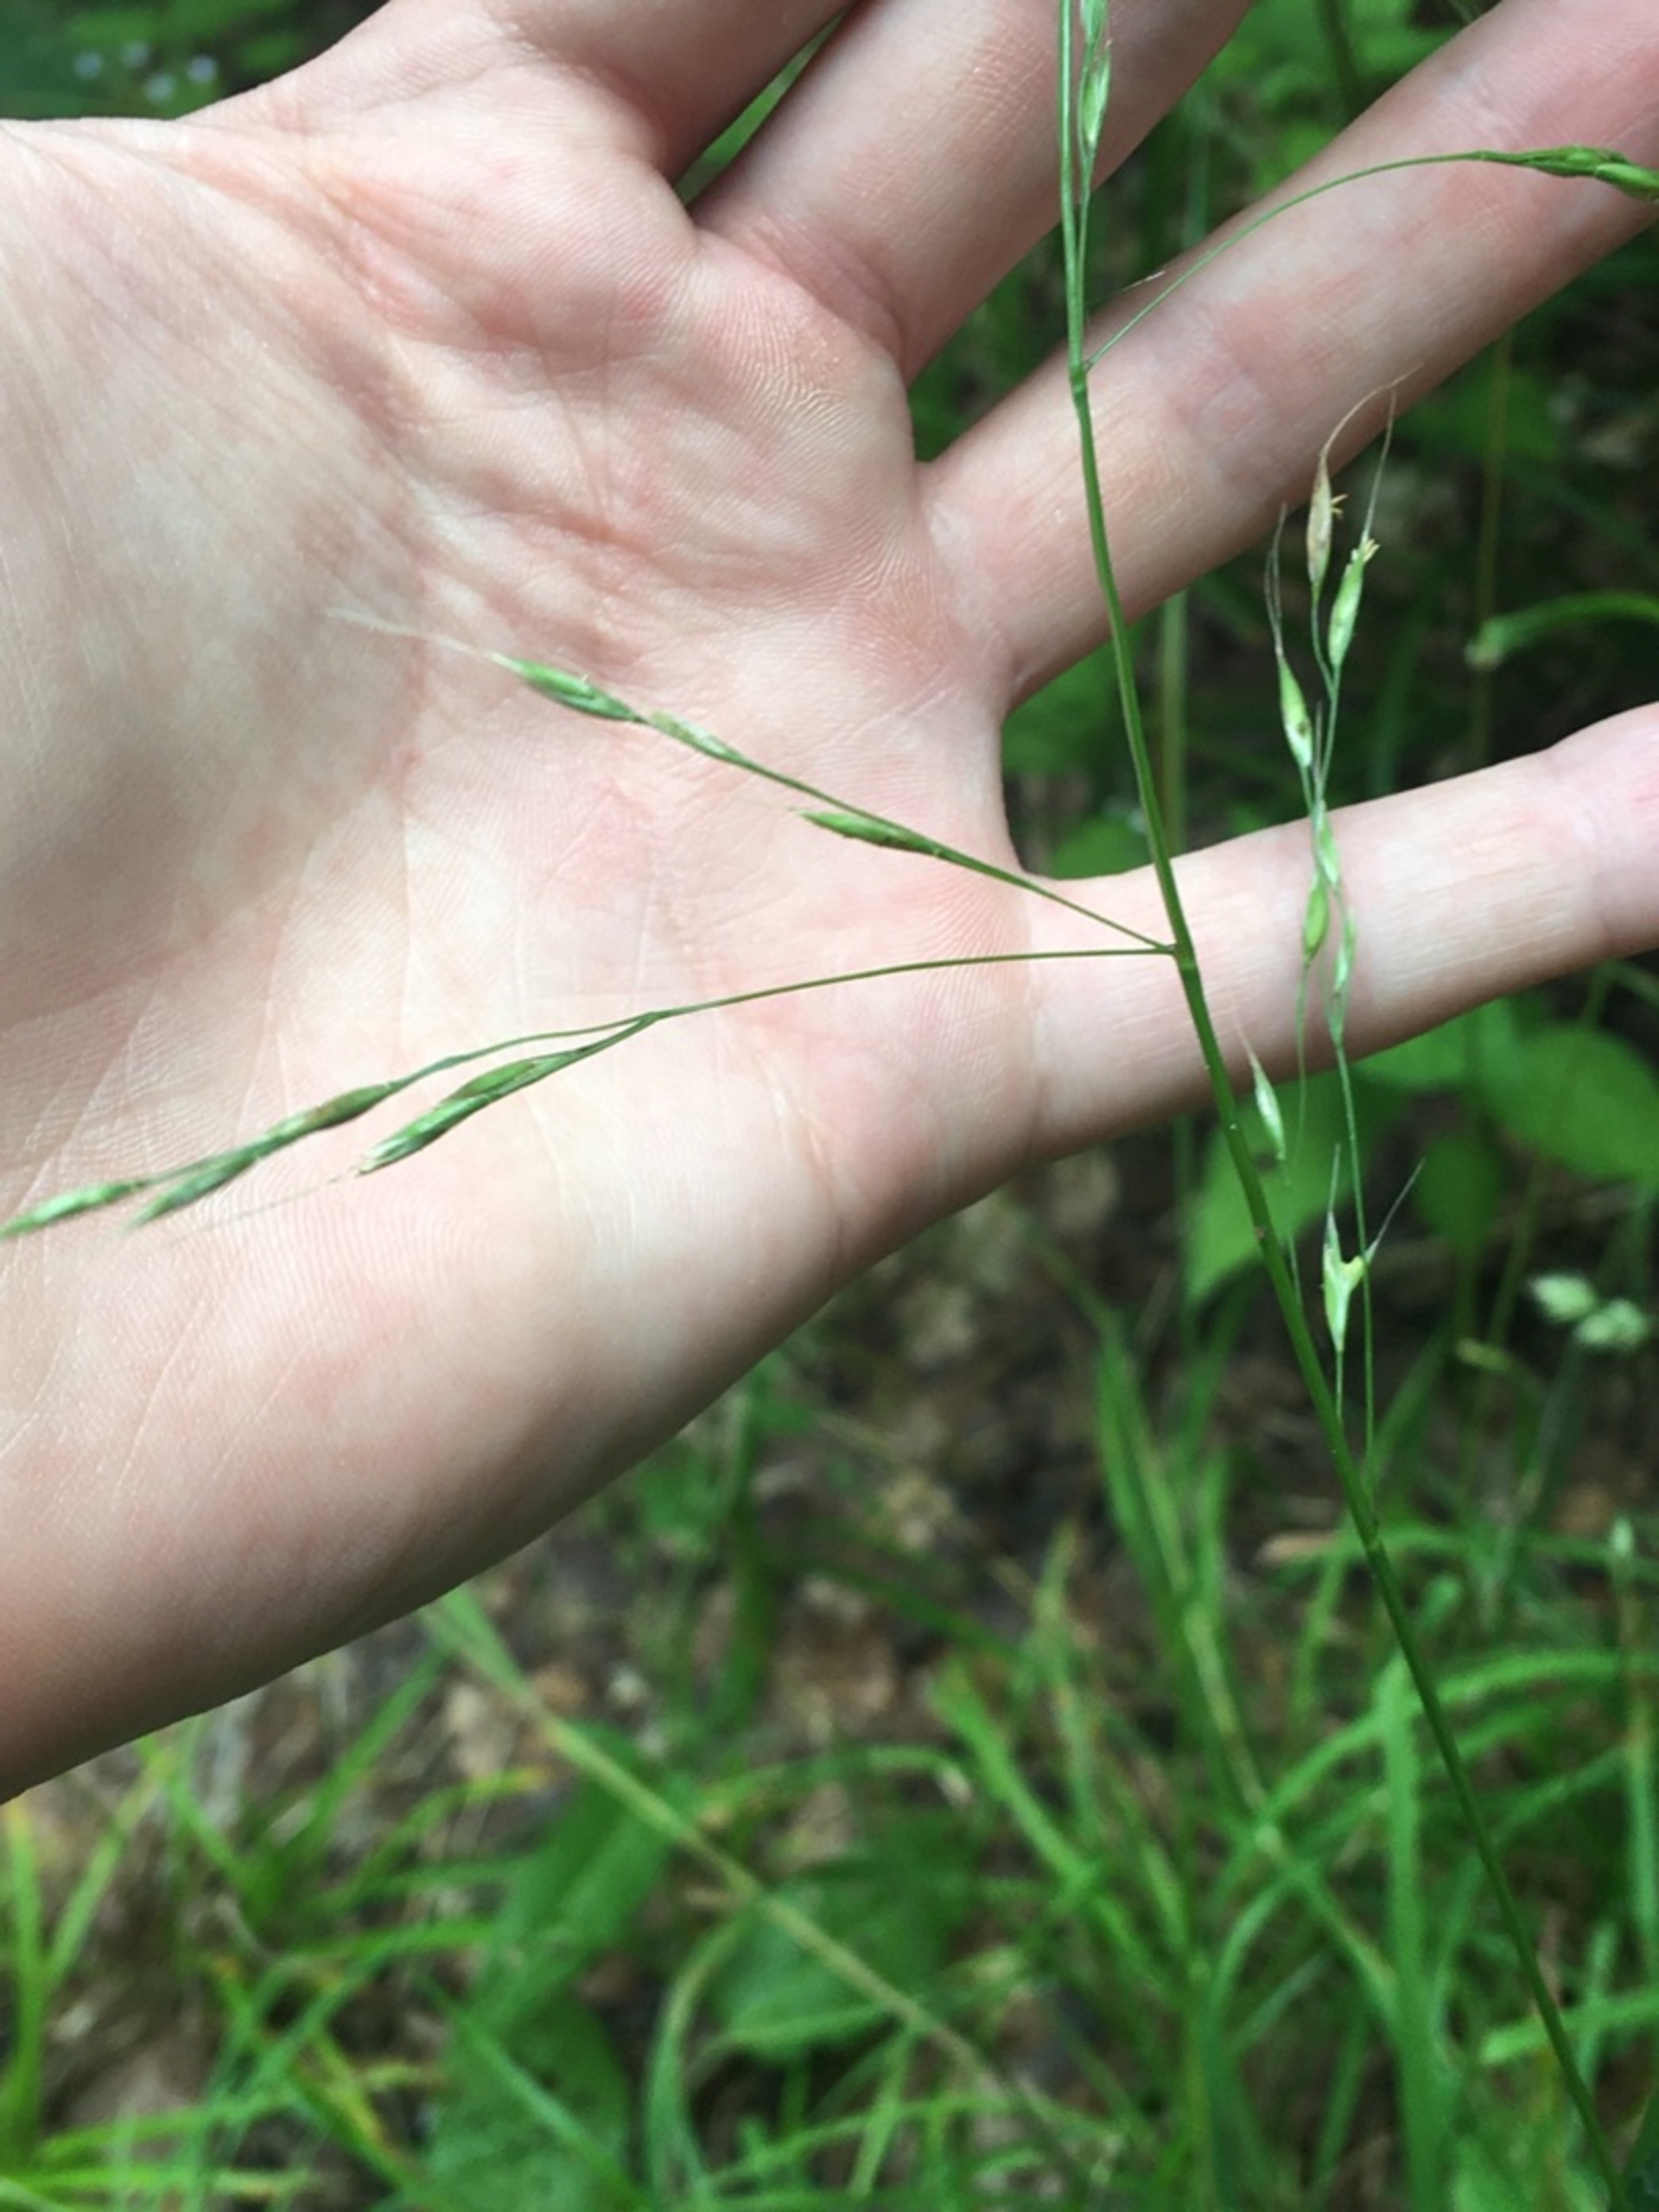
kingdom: Plantae
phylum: Tracheophyta
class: Liliopsida
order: Poales
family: Poaceae
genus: Lolium
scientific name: Lolium giganteum
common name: Kæmpe-svingel
